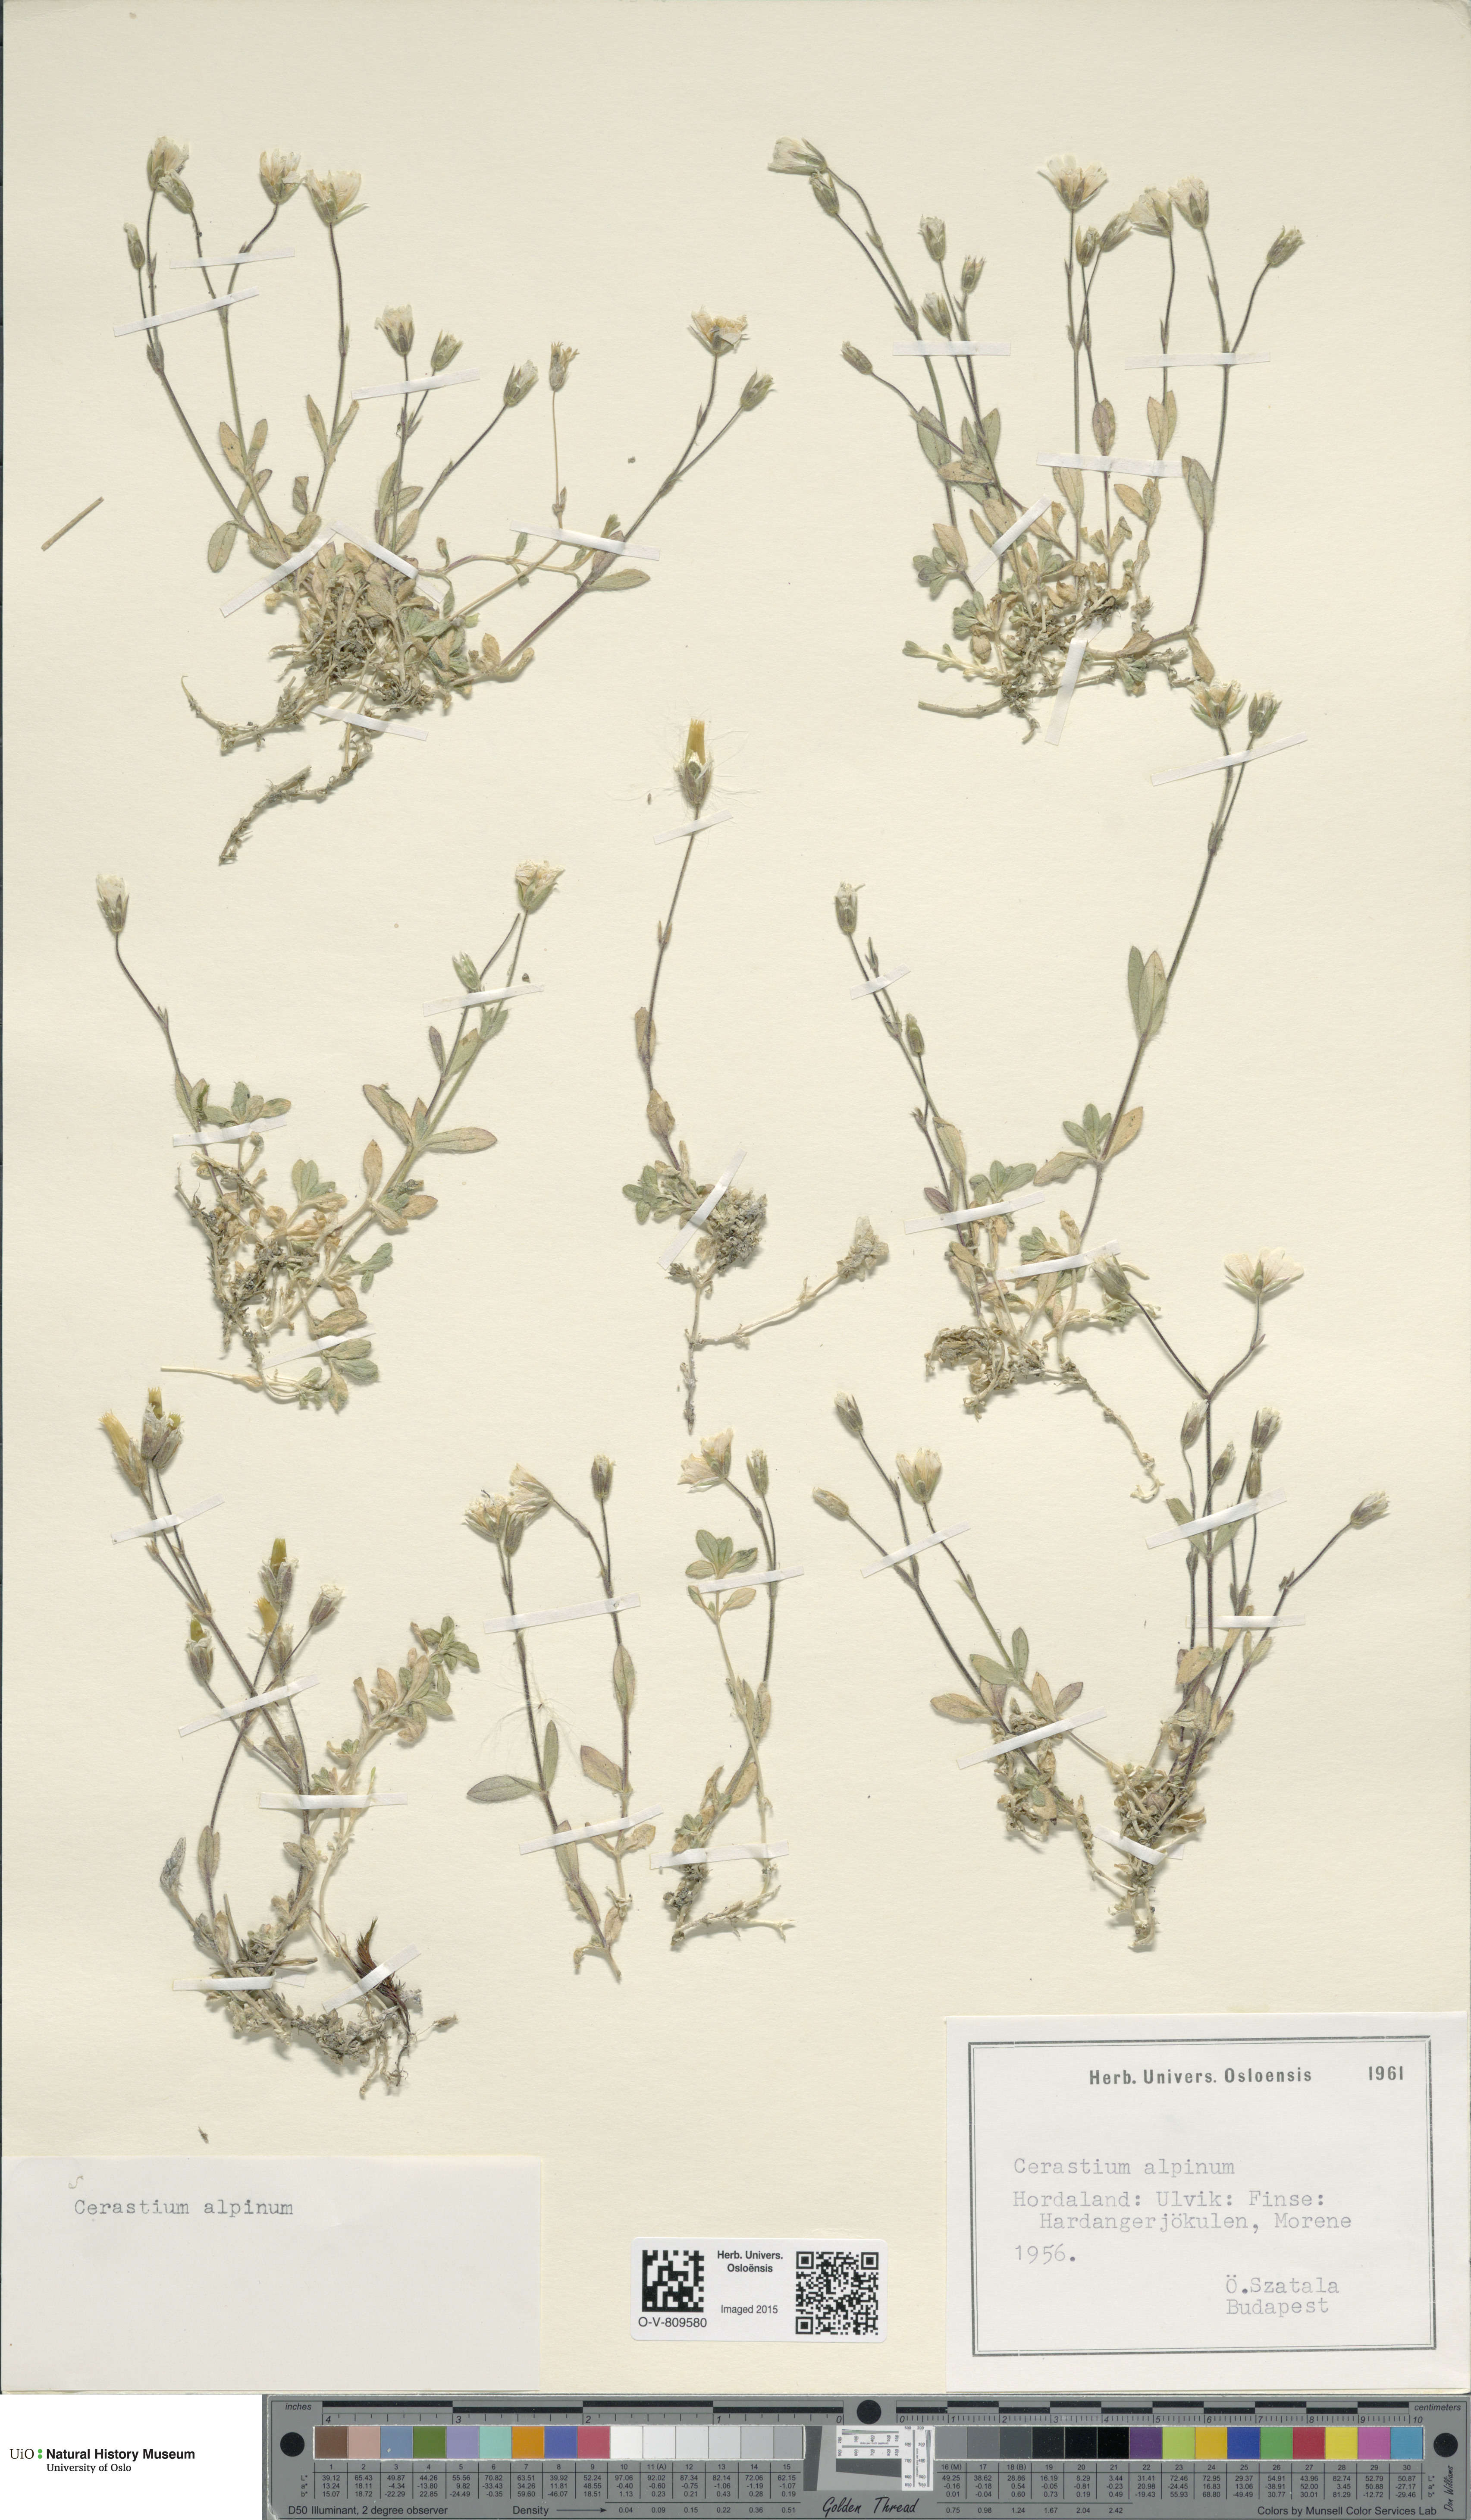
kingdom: Plantae
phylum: Tracheophyta
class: Magnoliopsida
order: Caryophyllales
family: Caryophyllaceae
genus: Cerastium
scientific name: Cerastium alpinum
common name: Alpine mouse-ear
